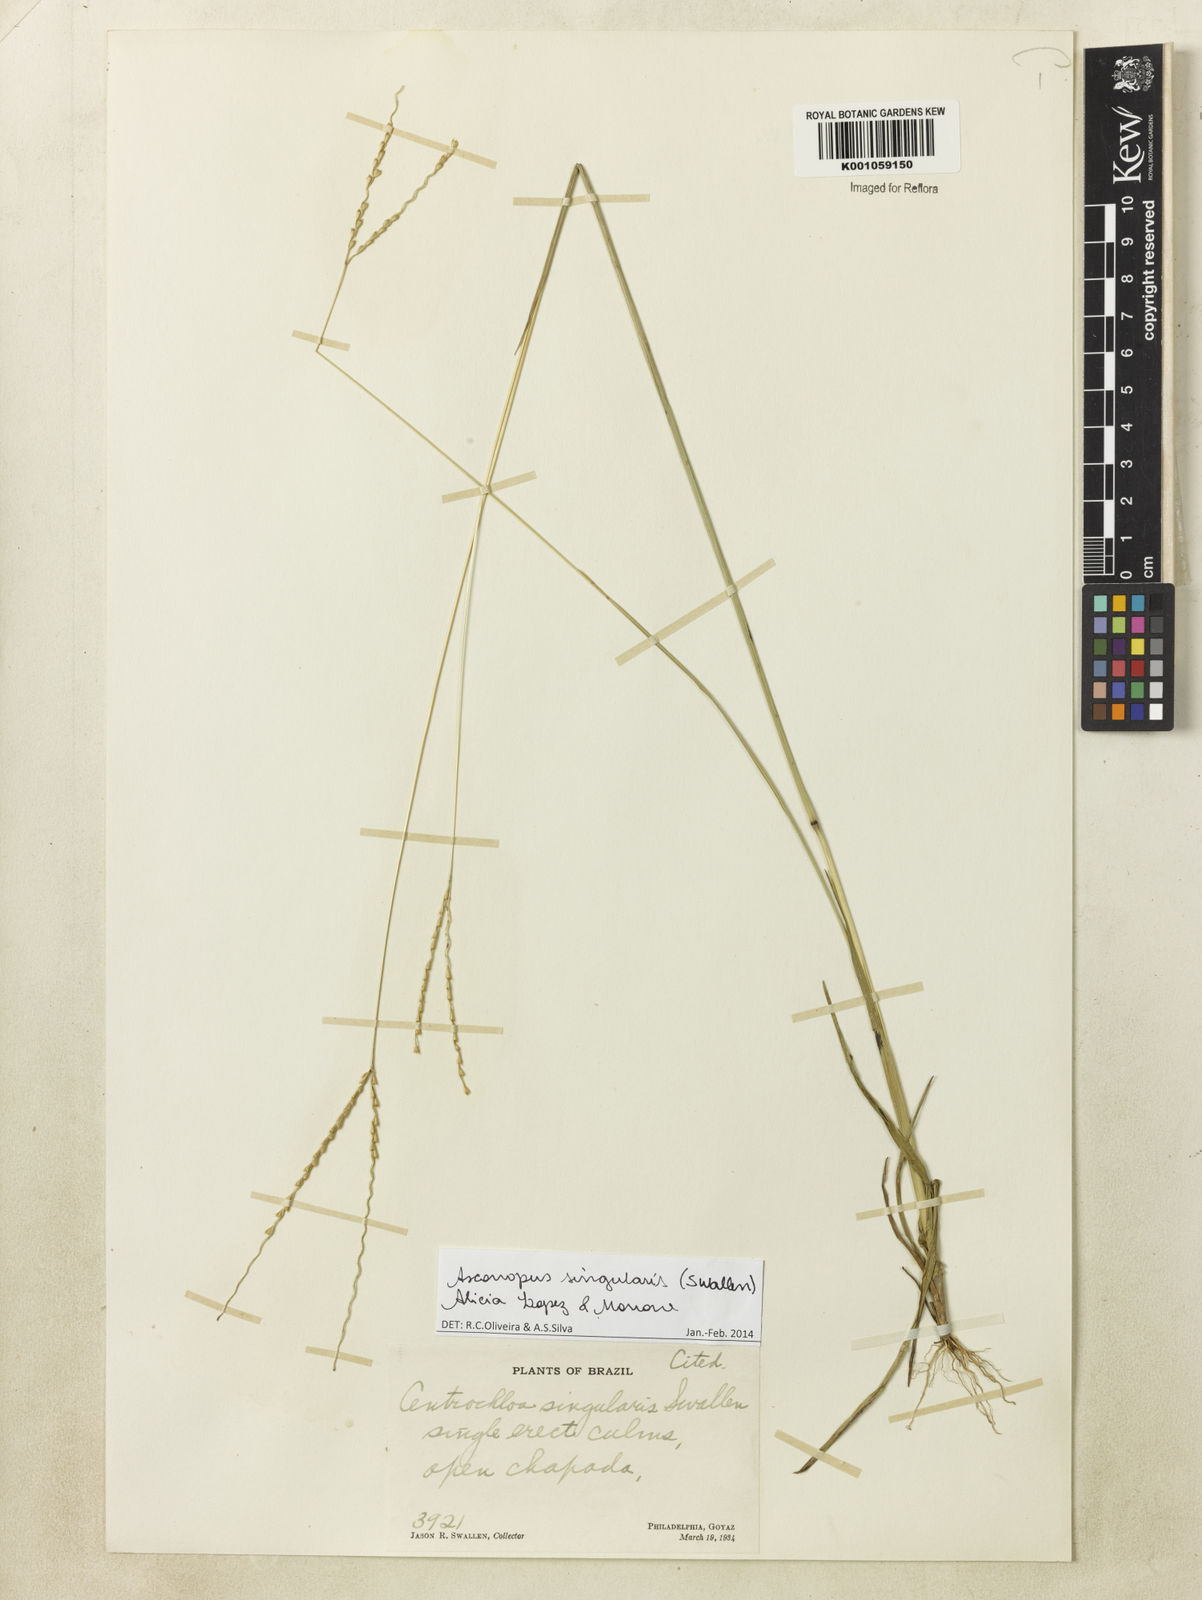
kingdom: Plantae
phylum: Tracheophyta
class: Liliopsida
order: Poales
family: Poaceae
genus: Axonopus
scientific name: Axonopus
